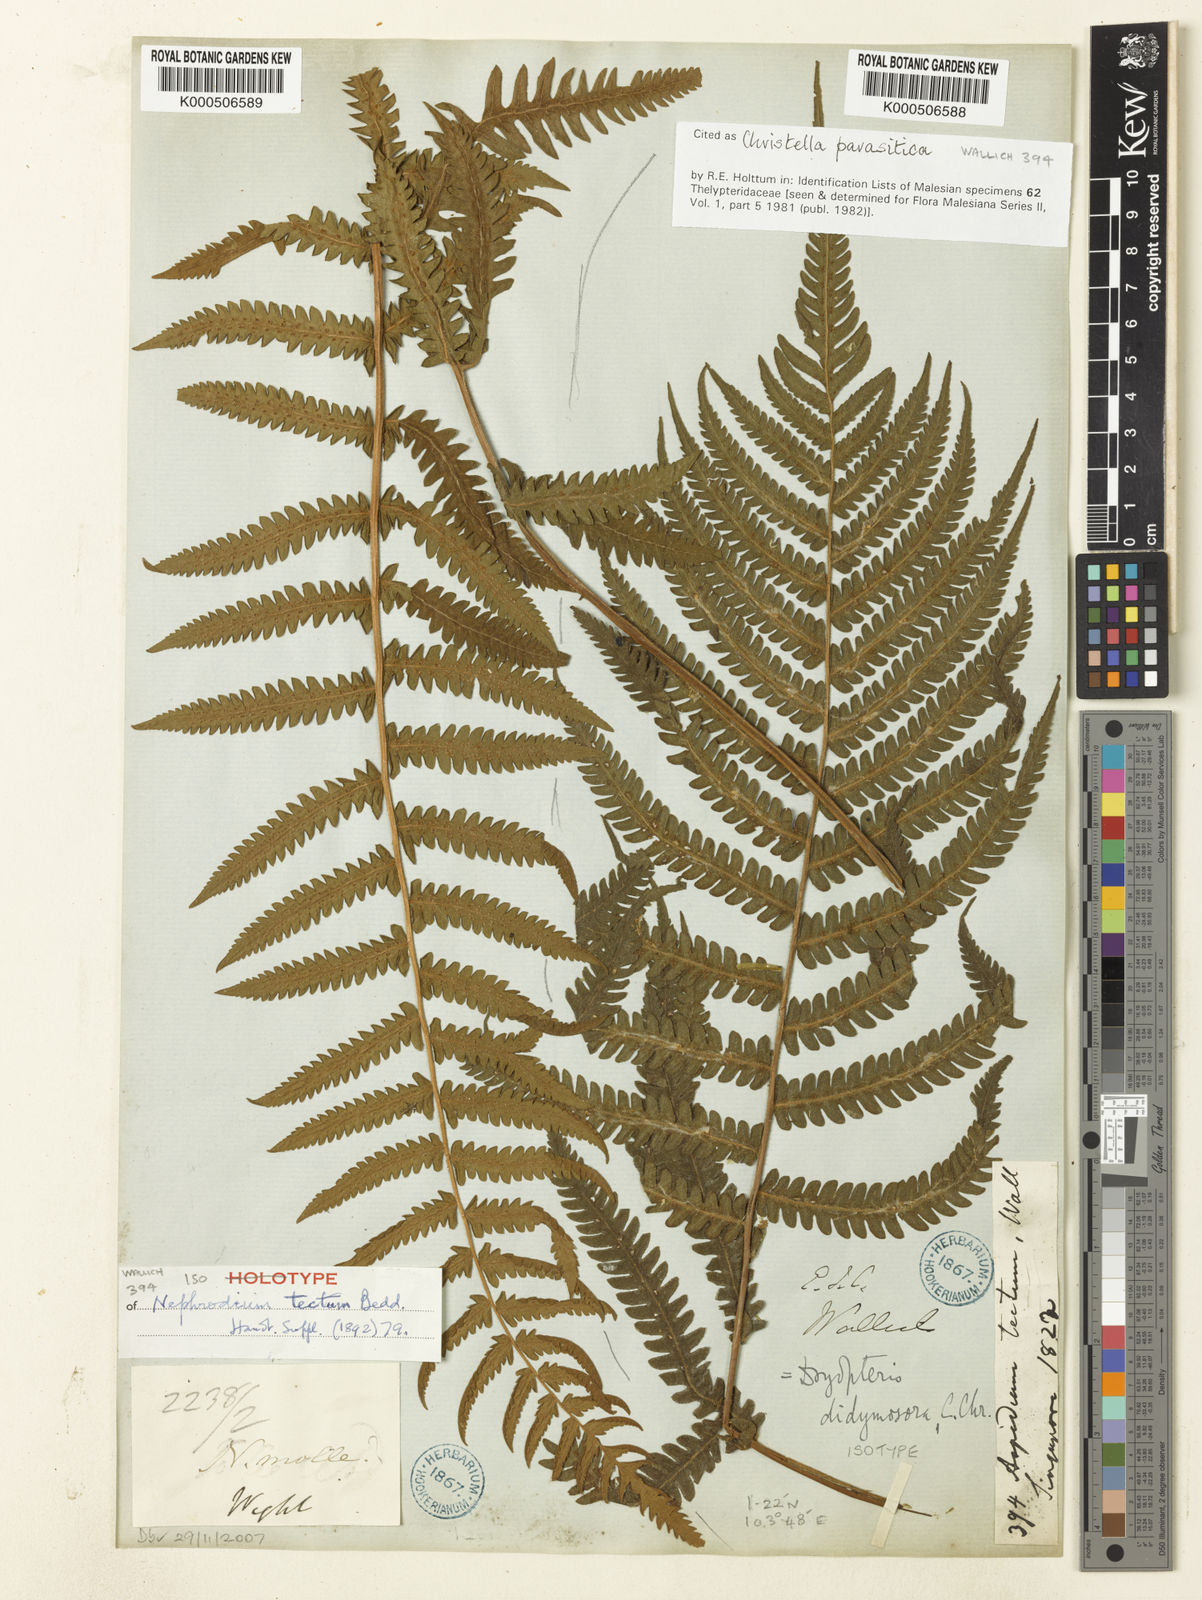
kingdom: Plantae
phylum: Tracheophyta
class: Polypodiopsida
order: Polypodiales
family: Thelypteridaceae
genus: Christella
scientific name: Christella parasitica
